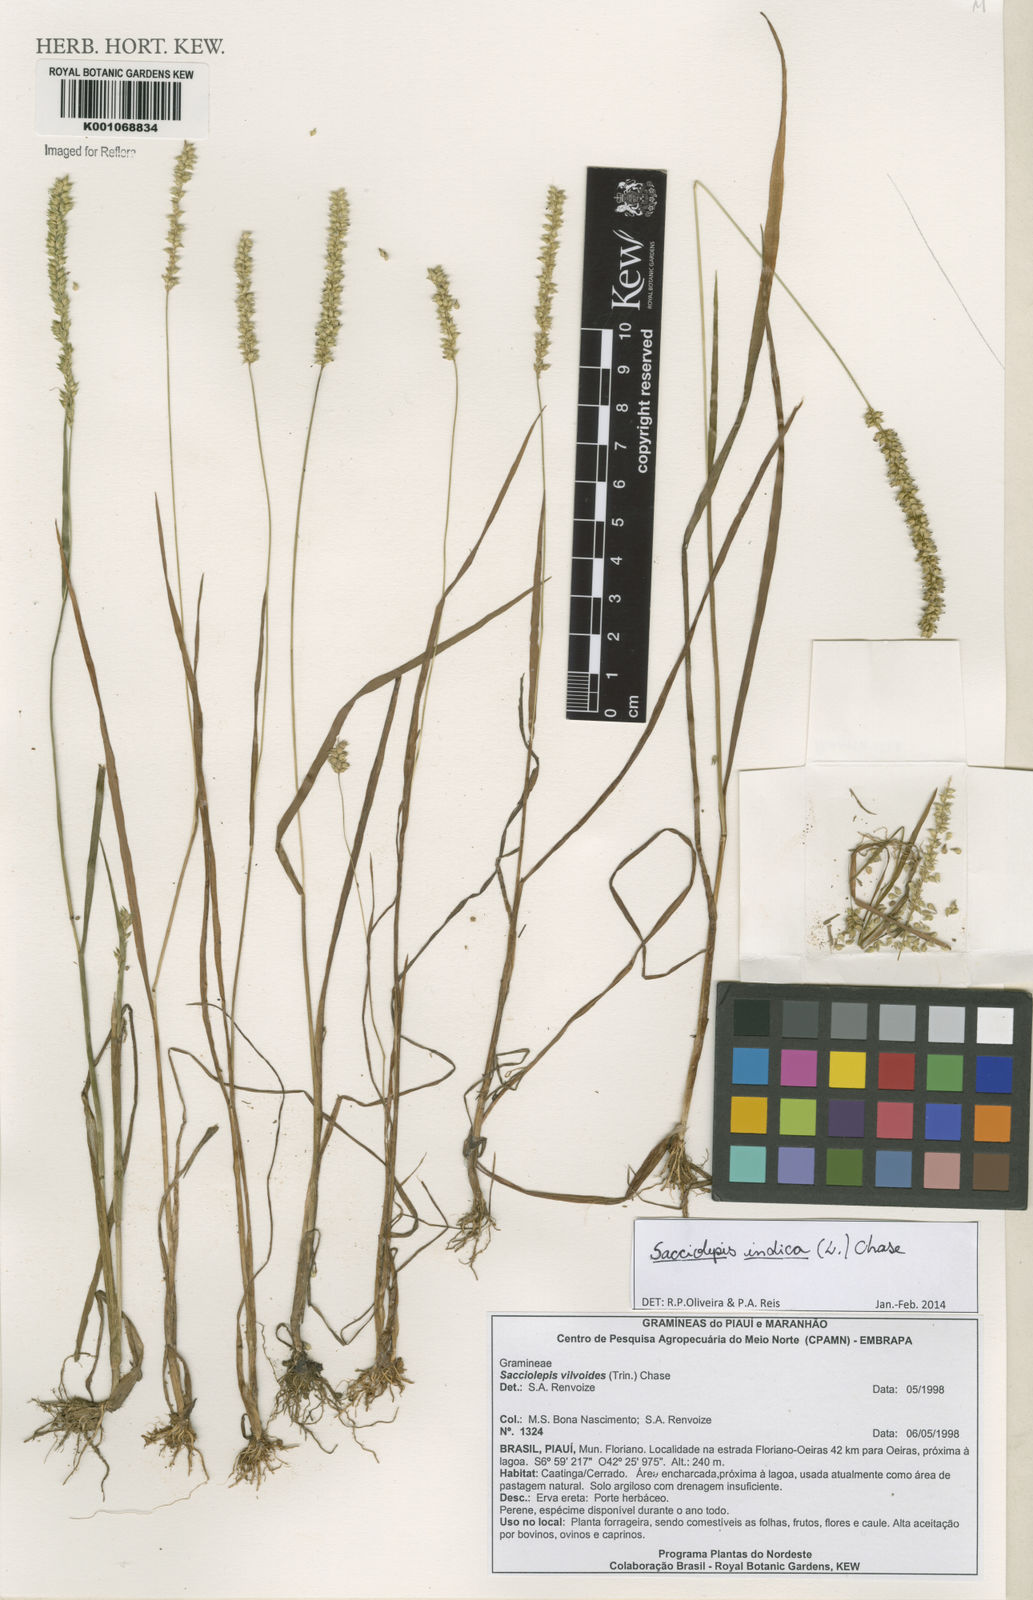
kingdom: Plantae
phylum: Tracheophyta
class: Liliopsida
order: Poales
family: Poaceae
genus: Sacciolepis
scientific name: Sacciolepis indica
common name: Glenwoodgrass
